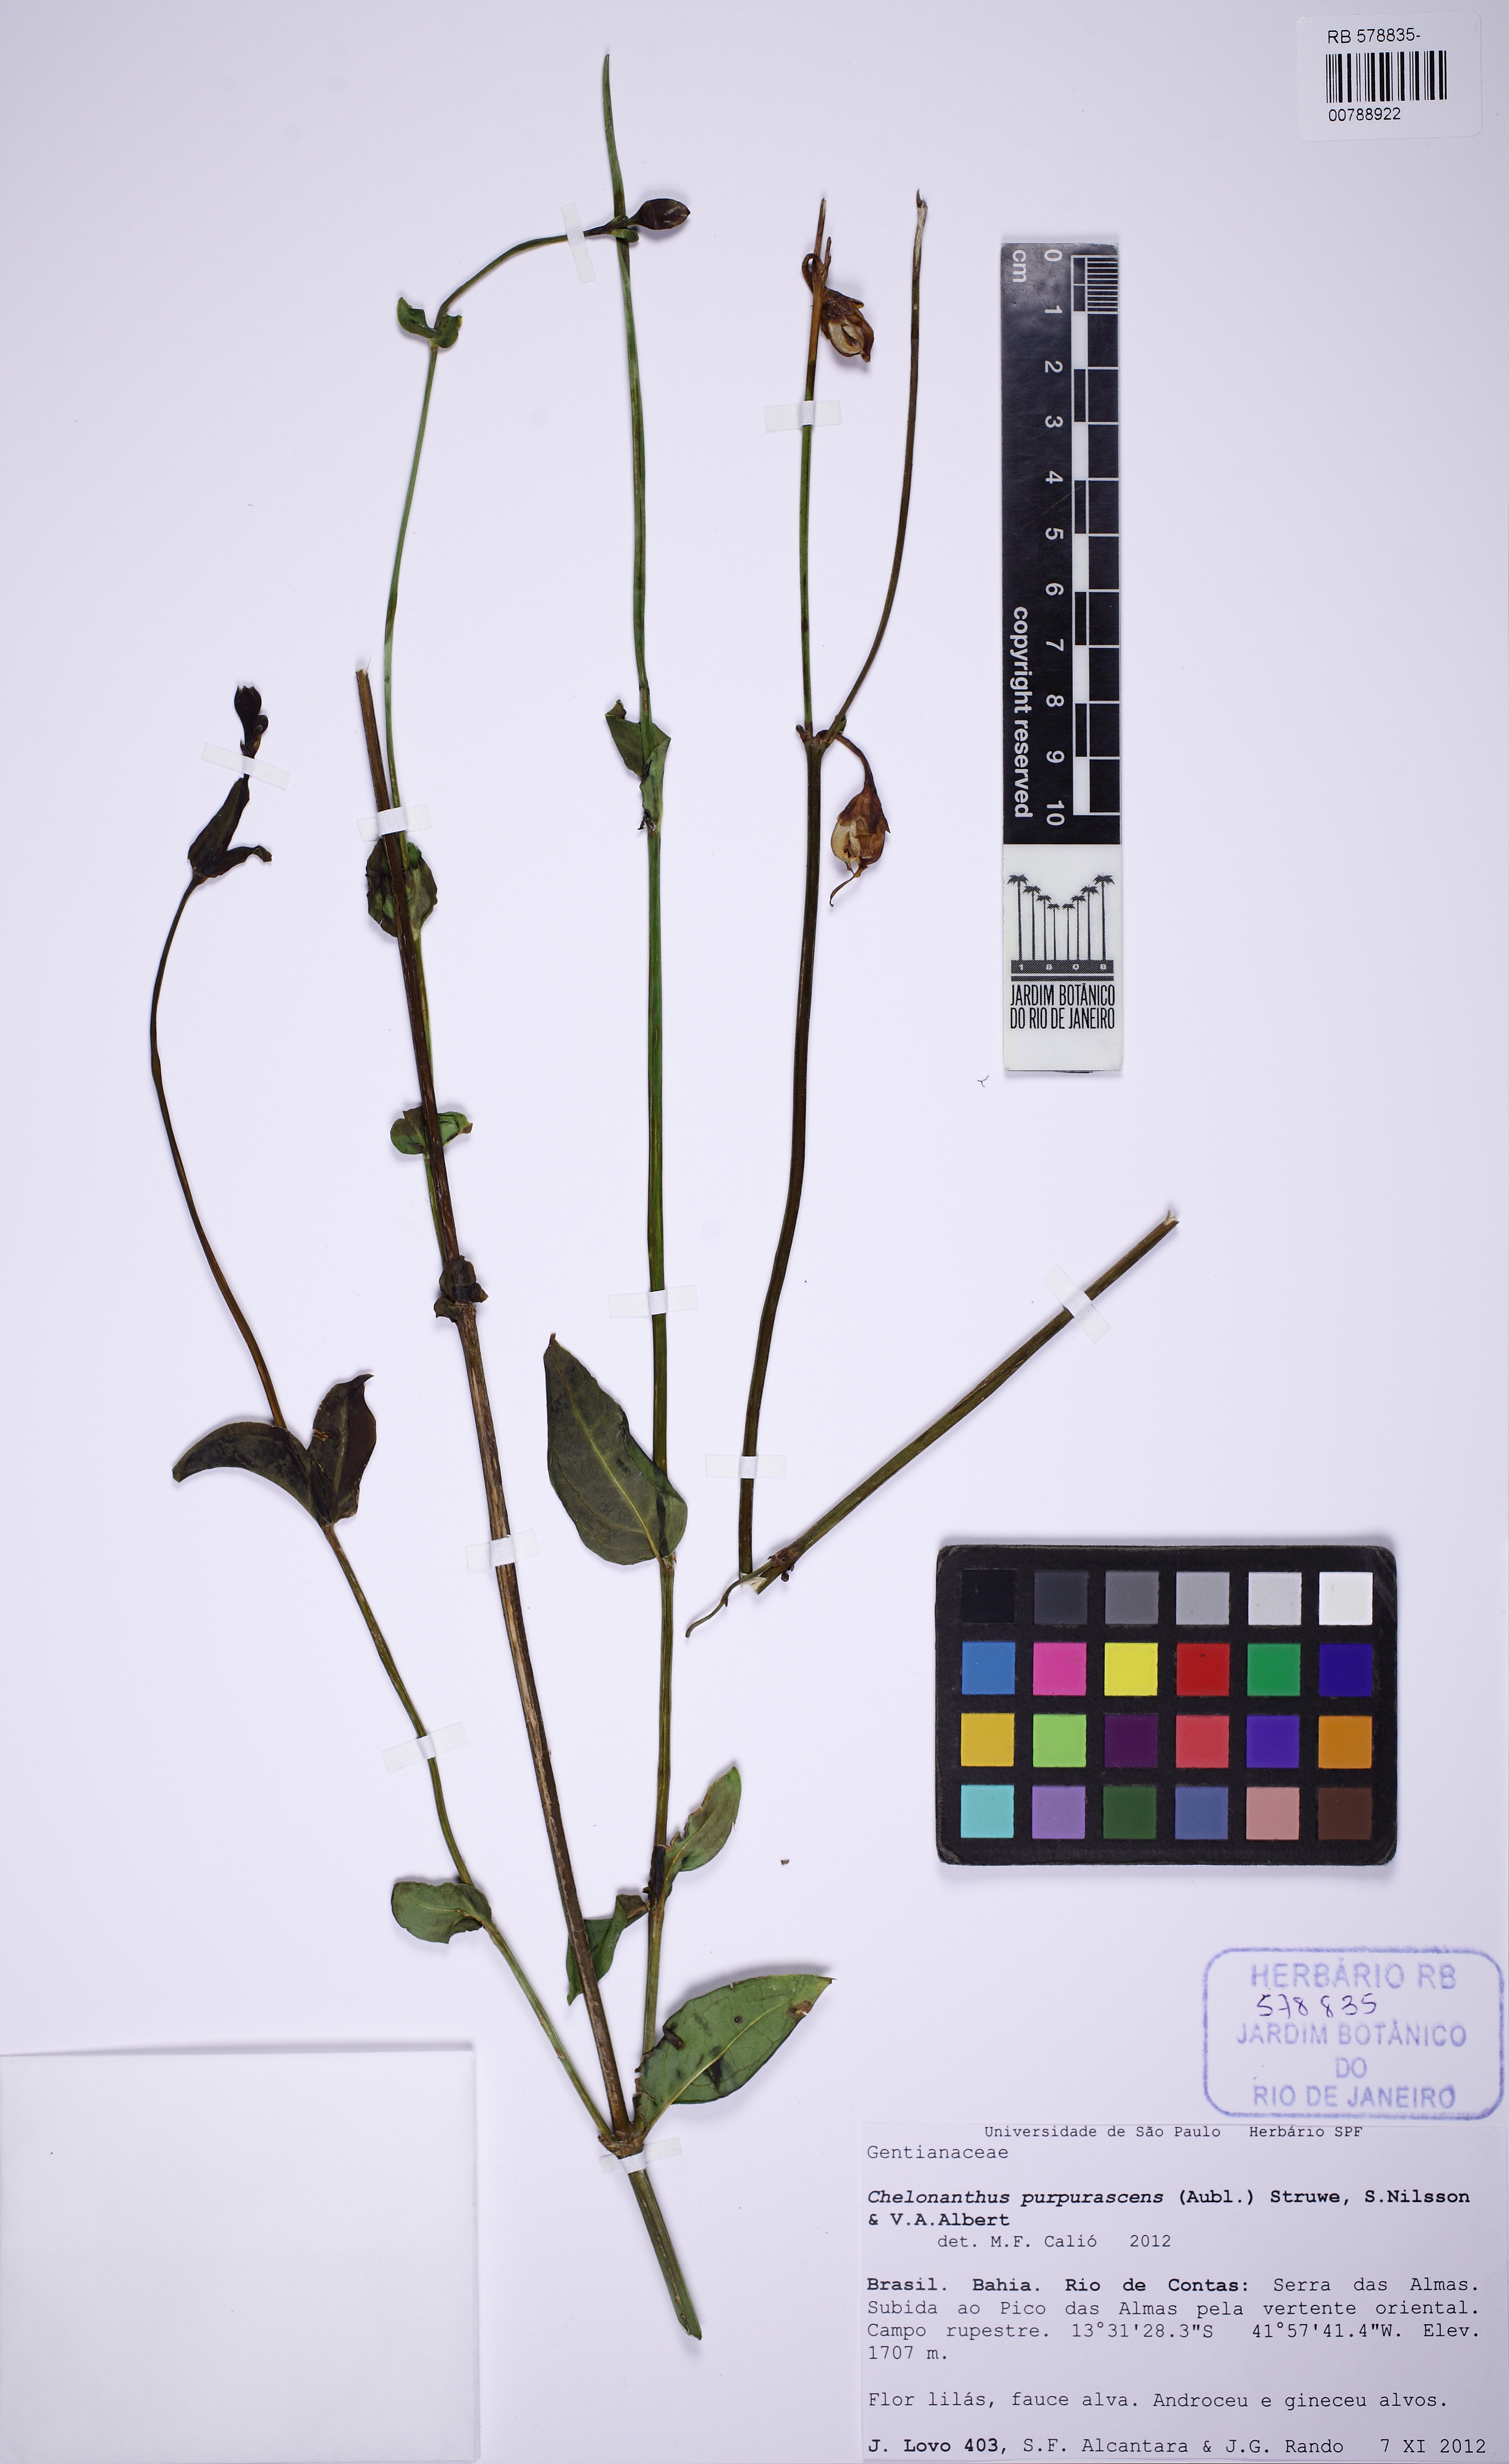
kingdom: Plantae
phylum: Tracheophyta
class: Magnoliopsida
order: Gentianales
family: Gentianaceae
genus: Chelonanthus
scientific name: Chelonanthus purpurascens
